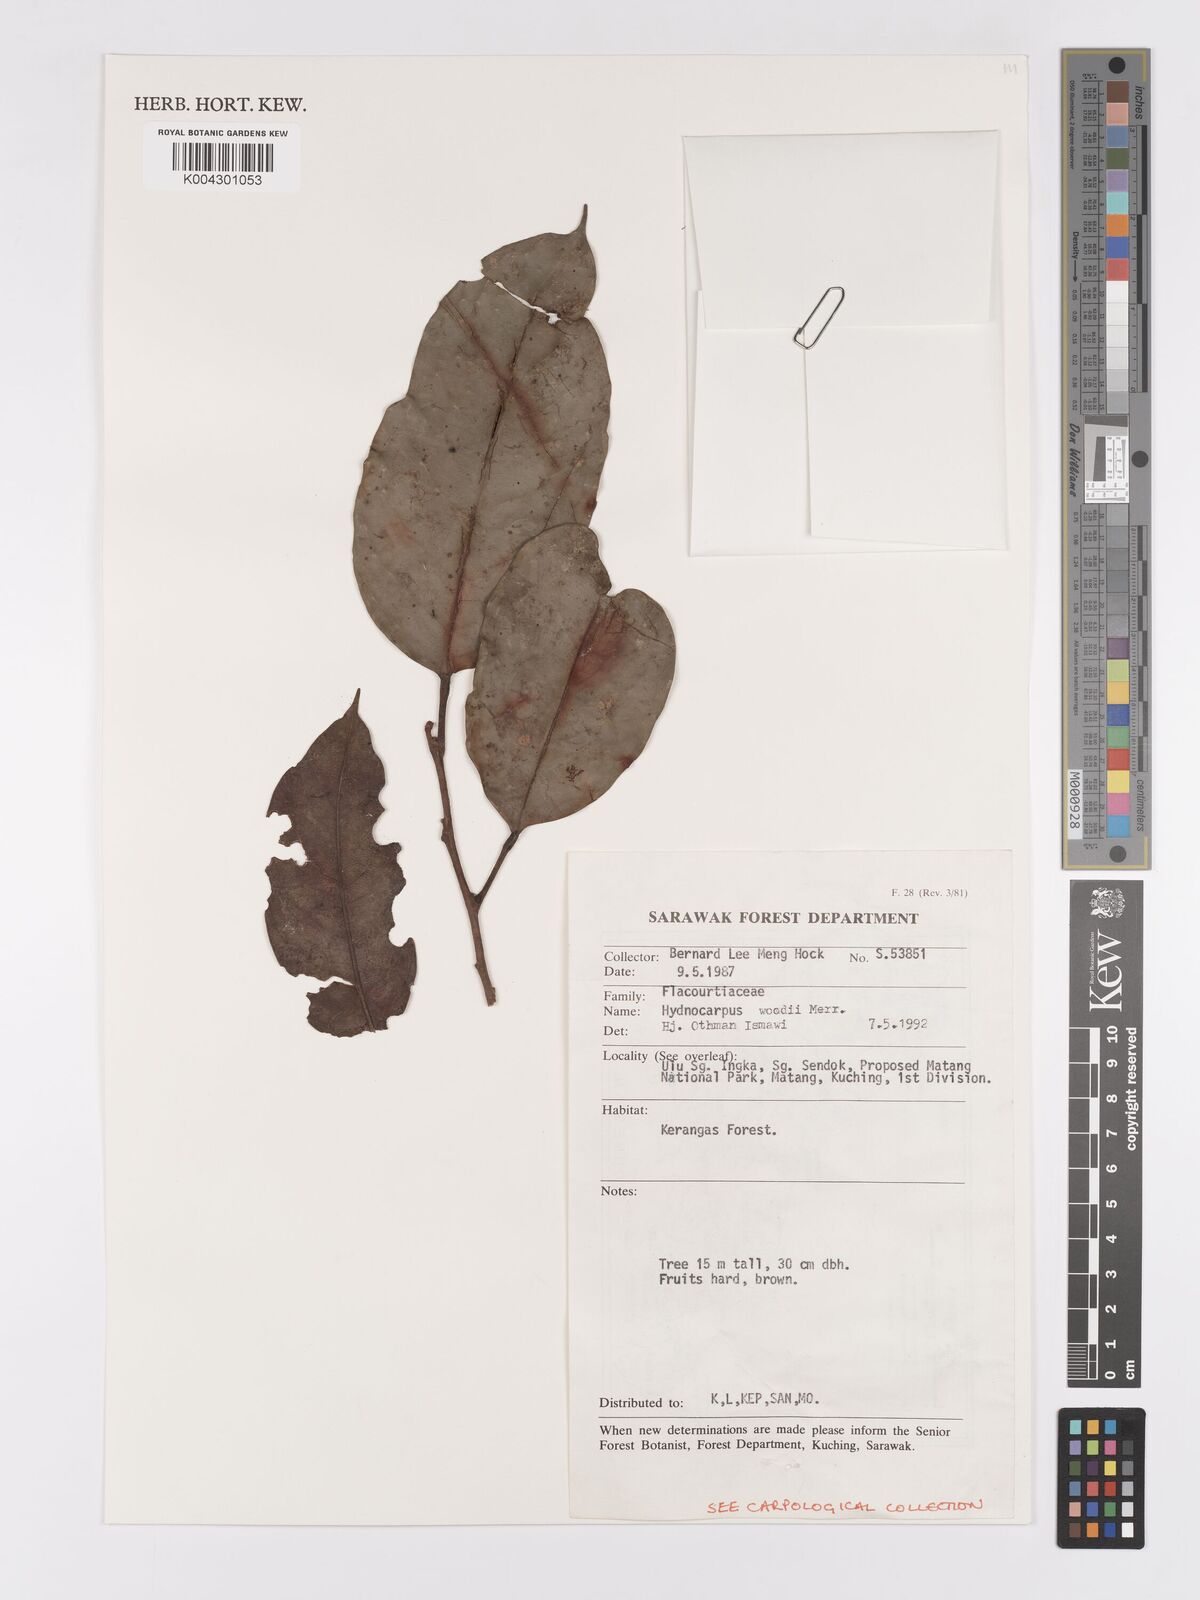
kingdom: Plantae
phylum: Tracheophyta
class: Magnoliopsida
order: Malpighiales
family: Achariaceae
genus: Hydnocarpus
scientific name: Hydnocarpus woodii
